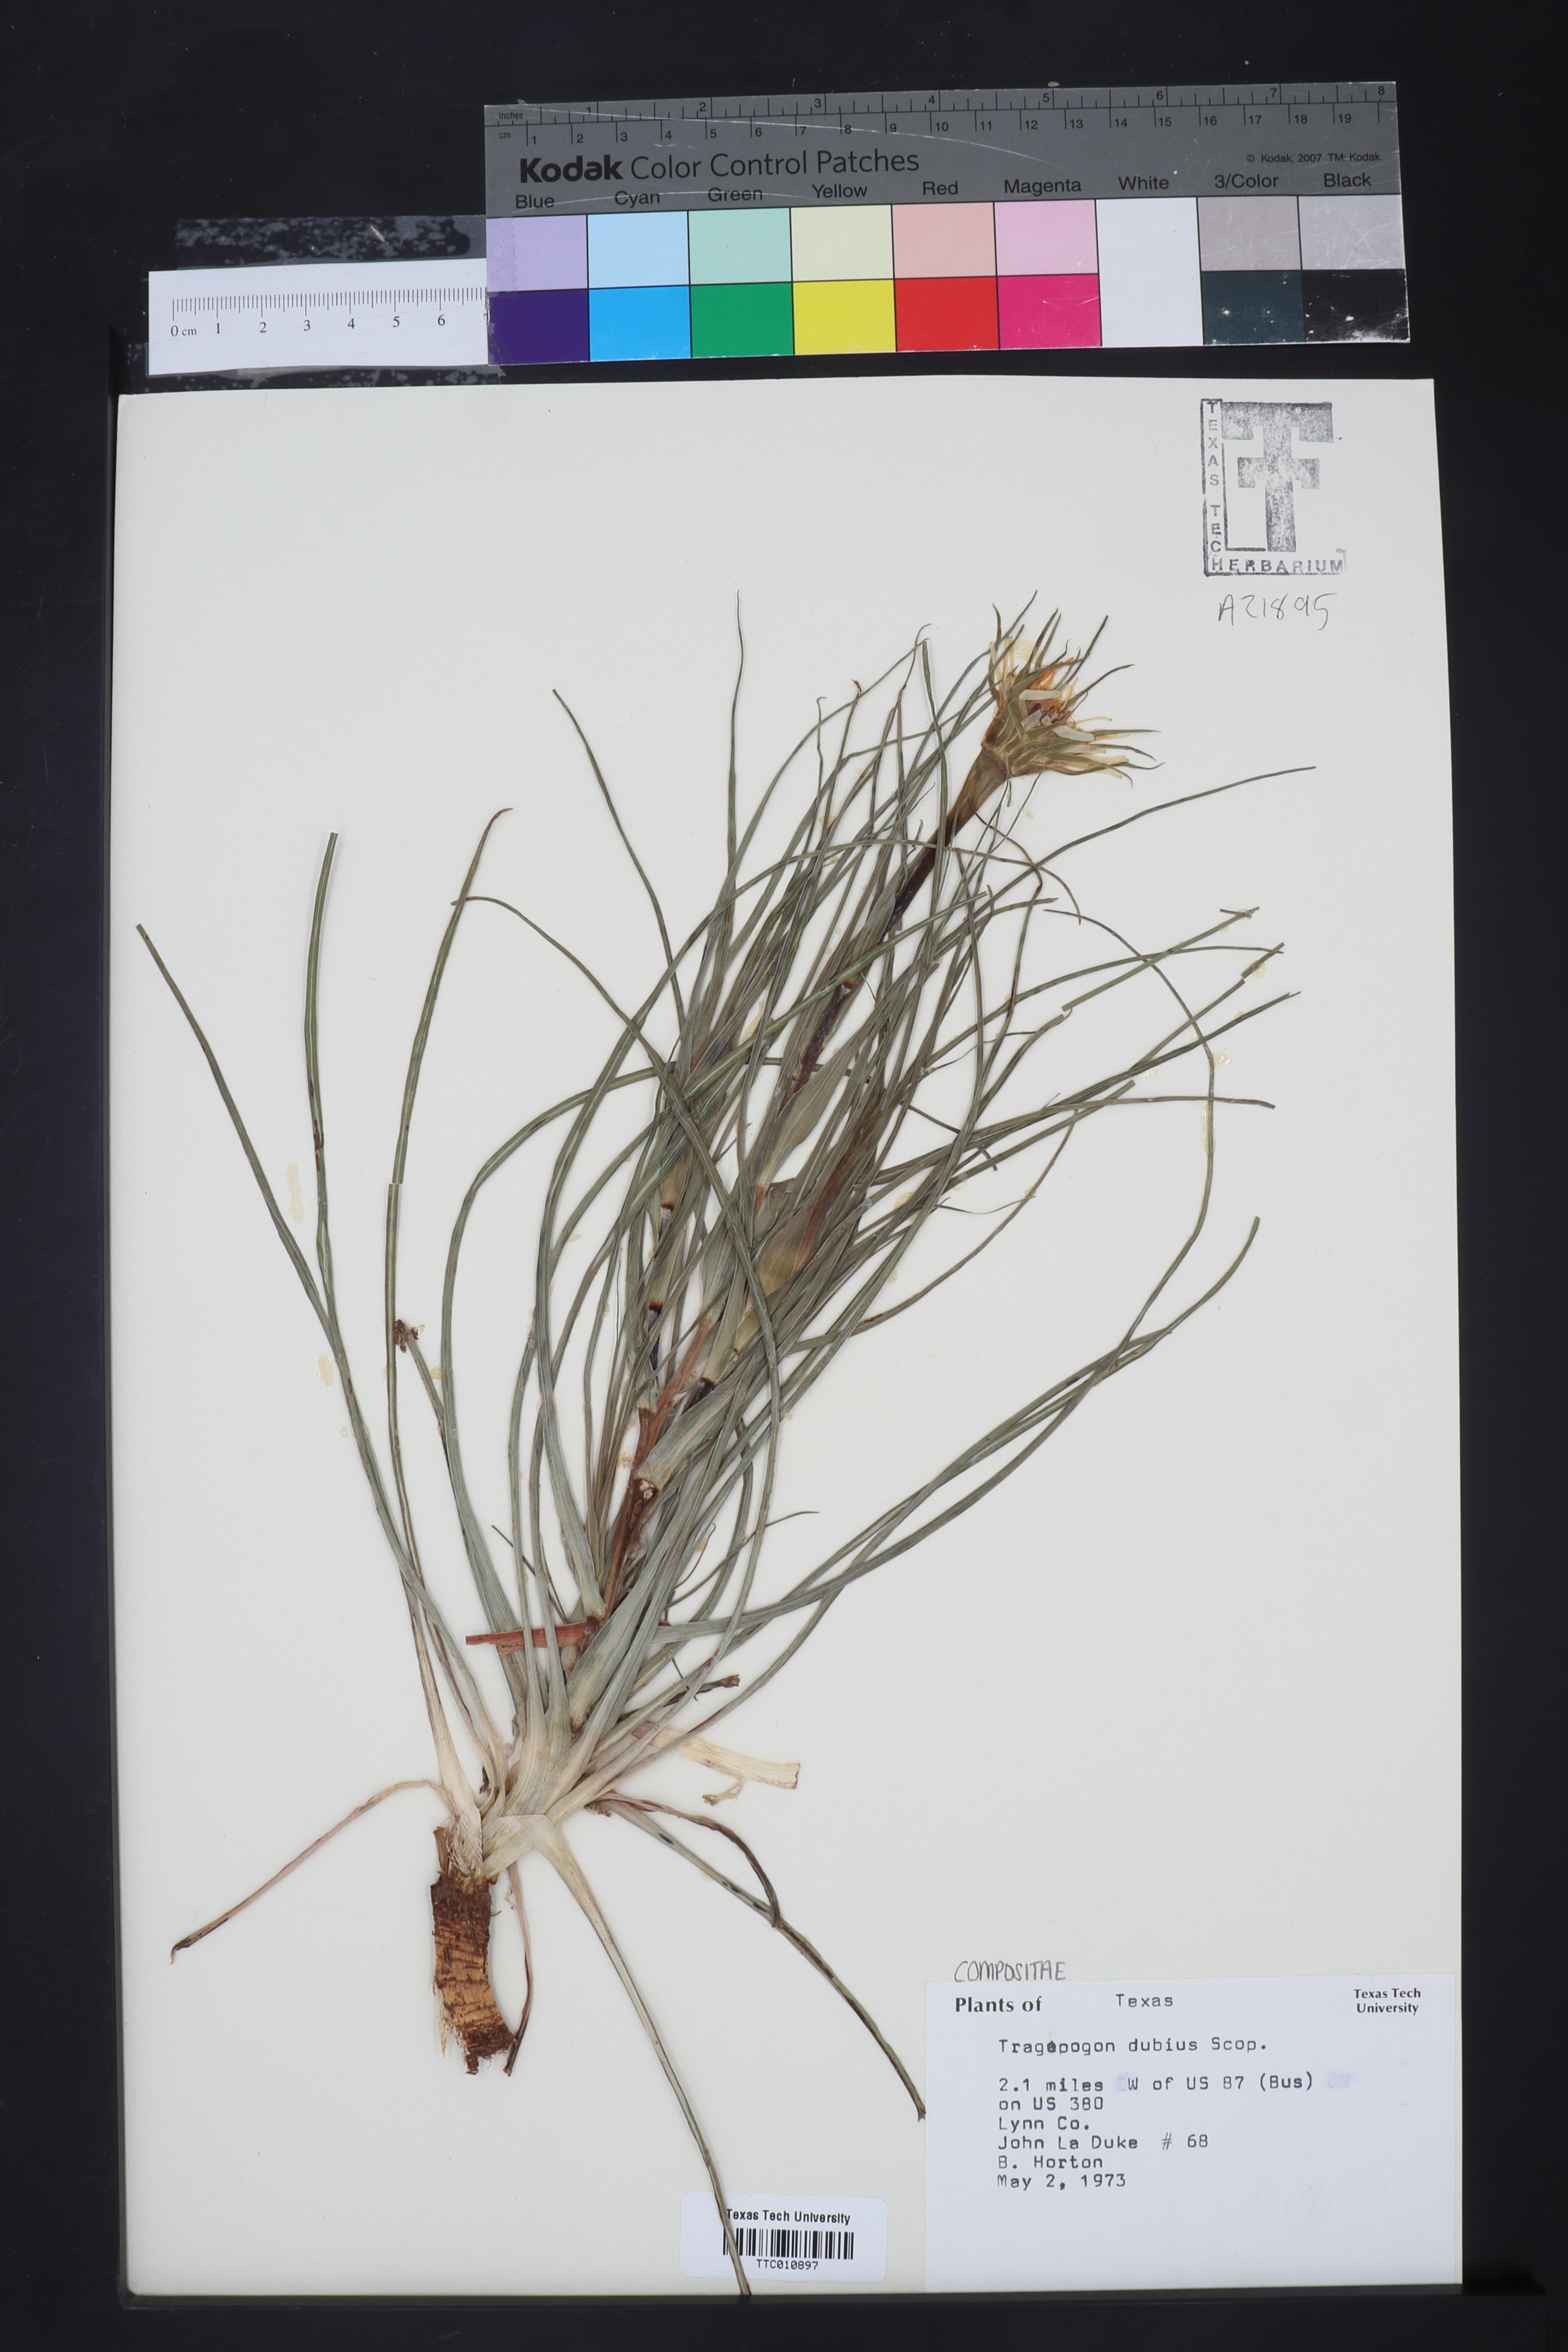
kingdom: Plantae
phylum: Tracheophyta
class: Magnoliopsida
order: Asterales
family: Asteraceae
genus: Tragopogon
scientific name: Tragopogon dubius
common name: Yellow salsify
